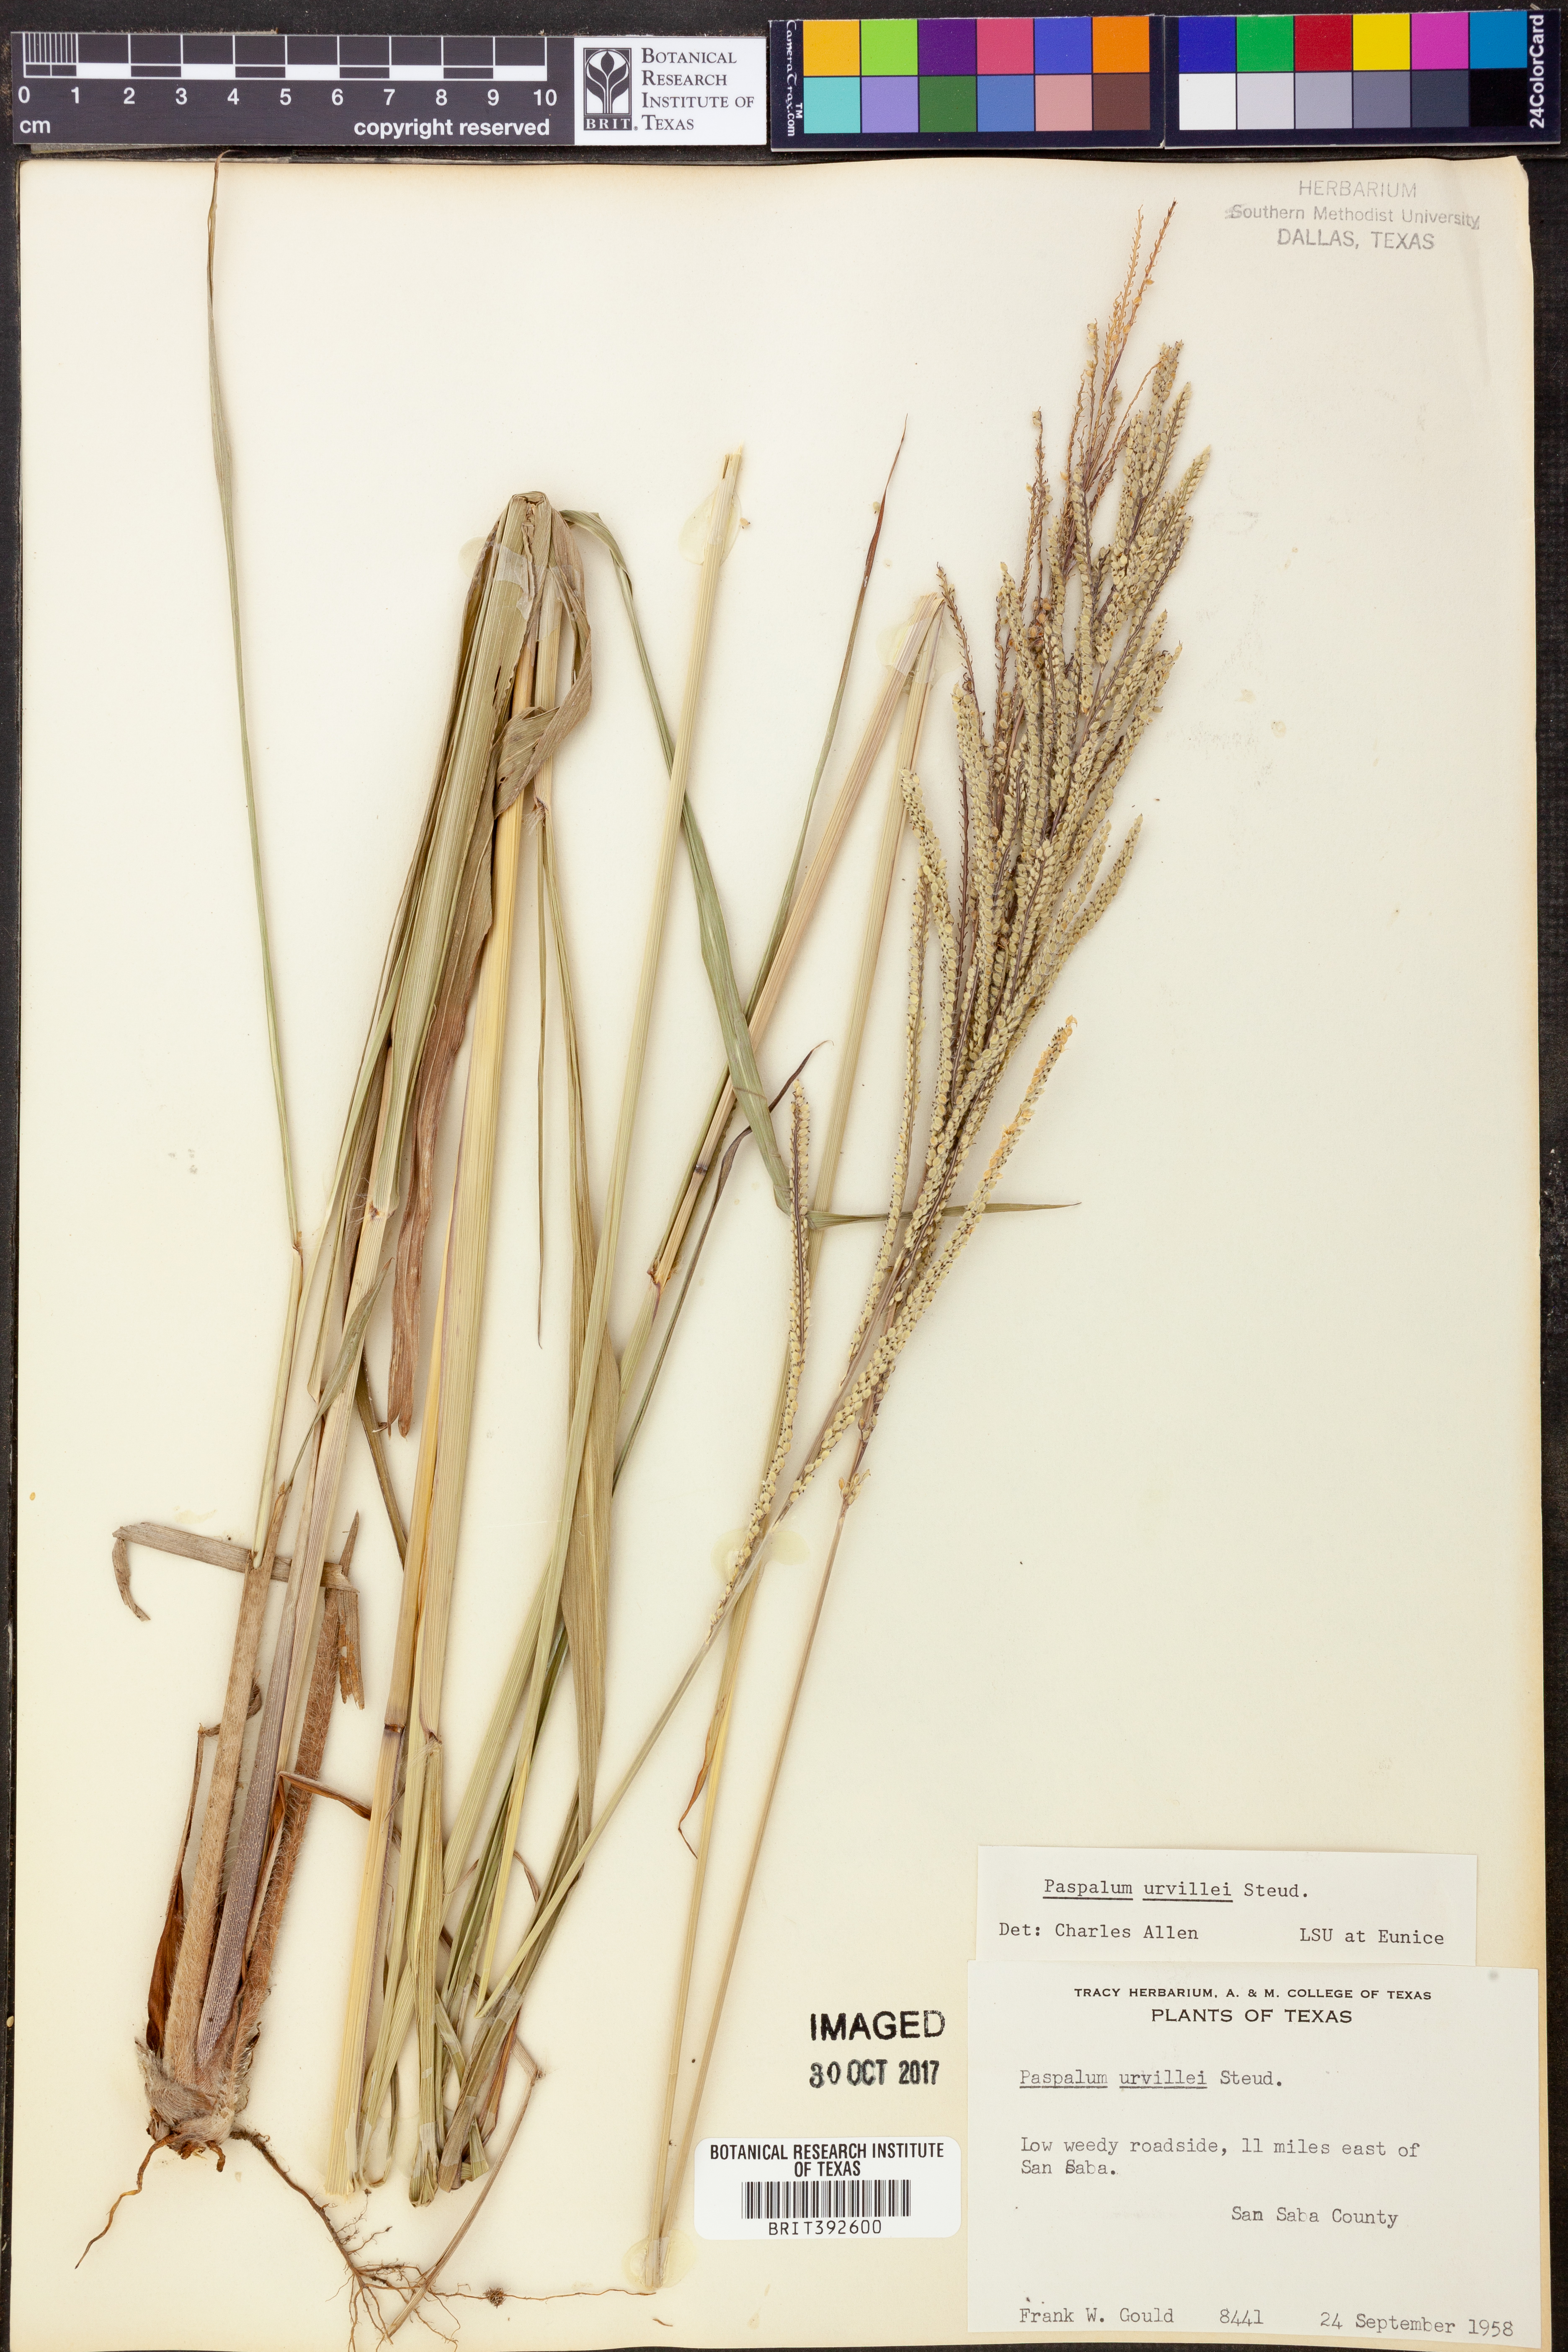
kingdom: Plantae
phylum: Tracheophyta
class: Liliopsida
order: Poales
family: Poaceae
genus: Paspalum
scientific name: Paspalum urvillei
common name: Vasey's grass
